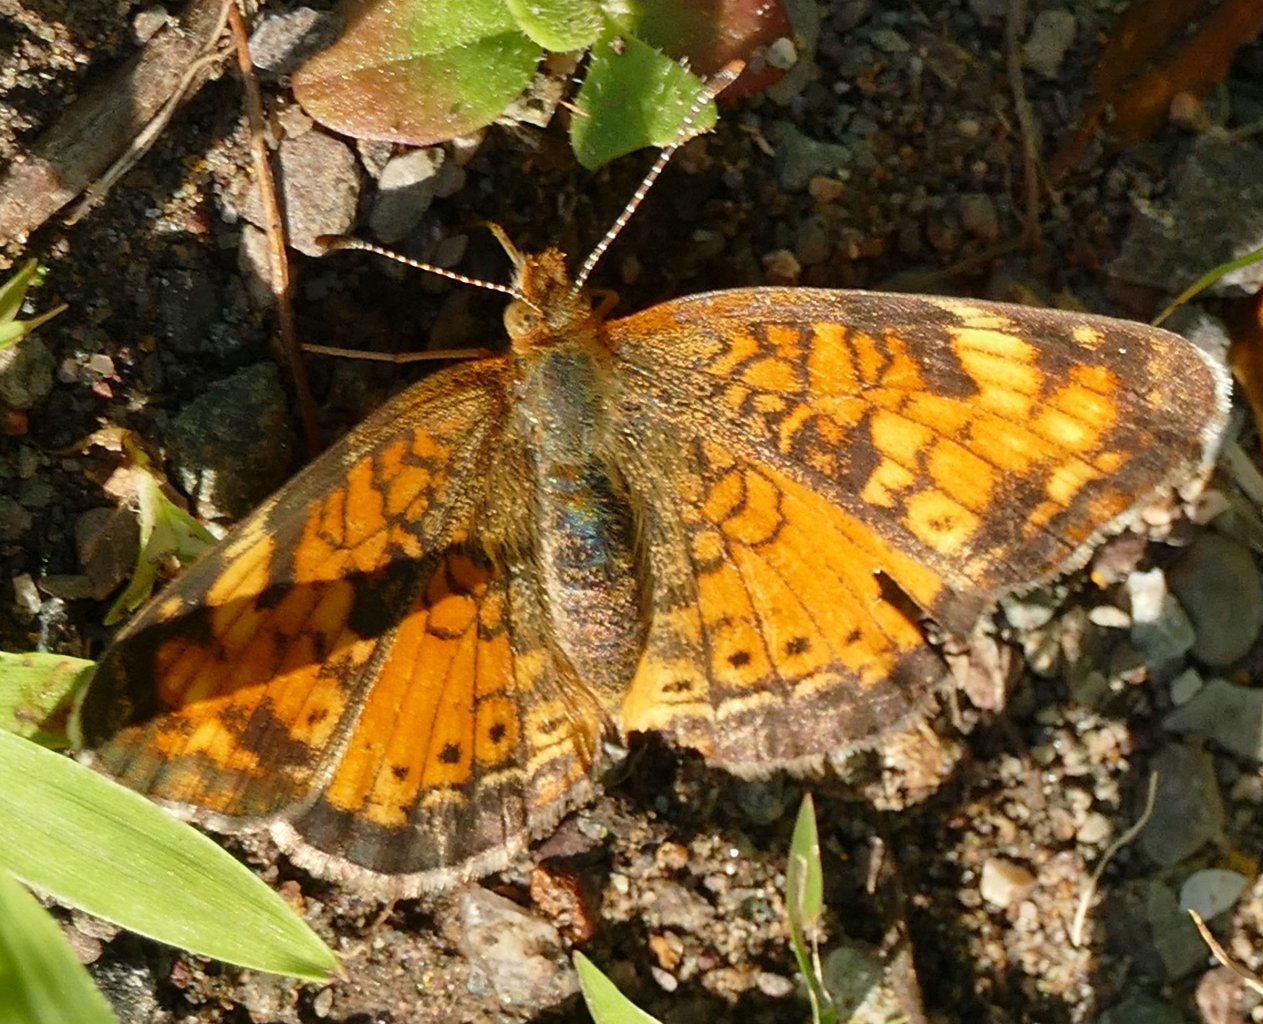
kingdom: Animalia
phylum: Arthropoda
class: Insecta
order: Lepidoptera
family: Nymphalidae
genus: Phyciodes
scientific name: Phyciodes tharos
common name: Northern Crescent
